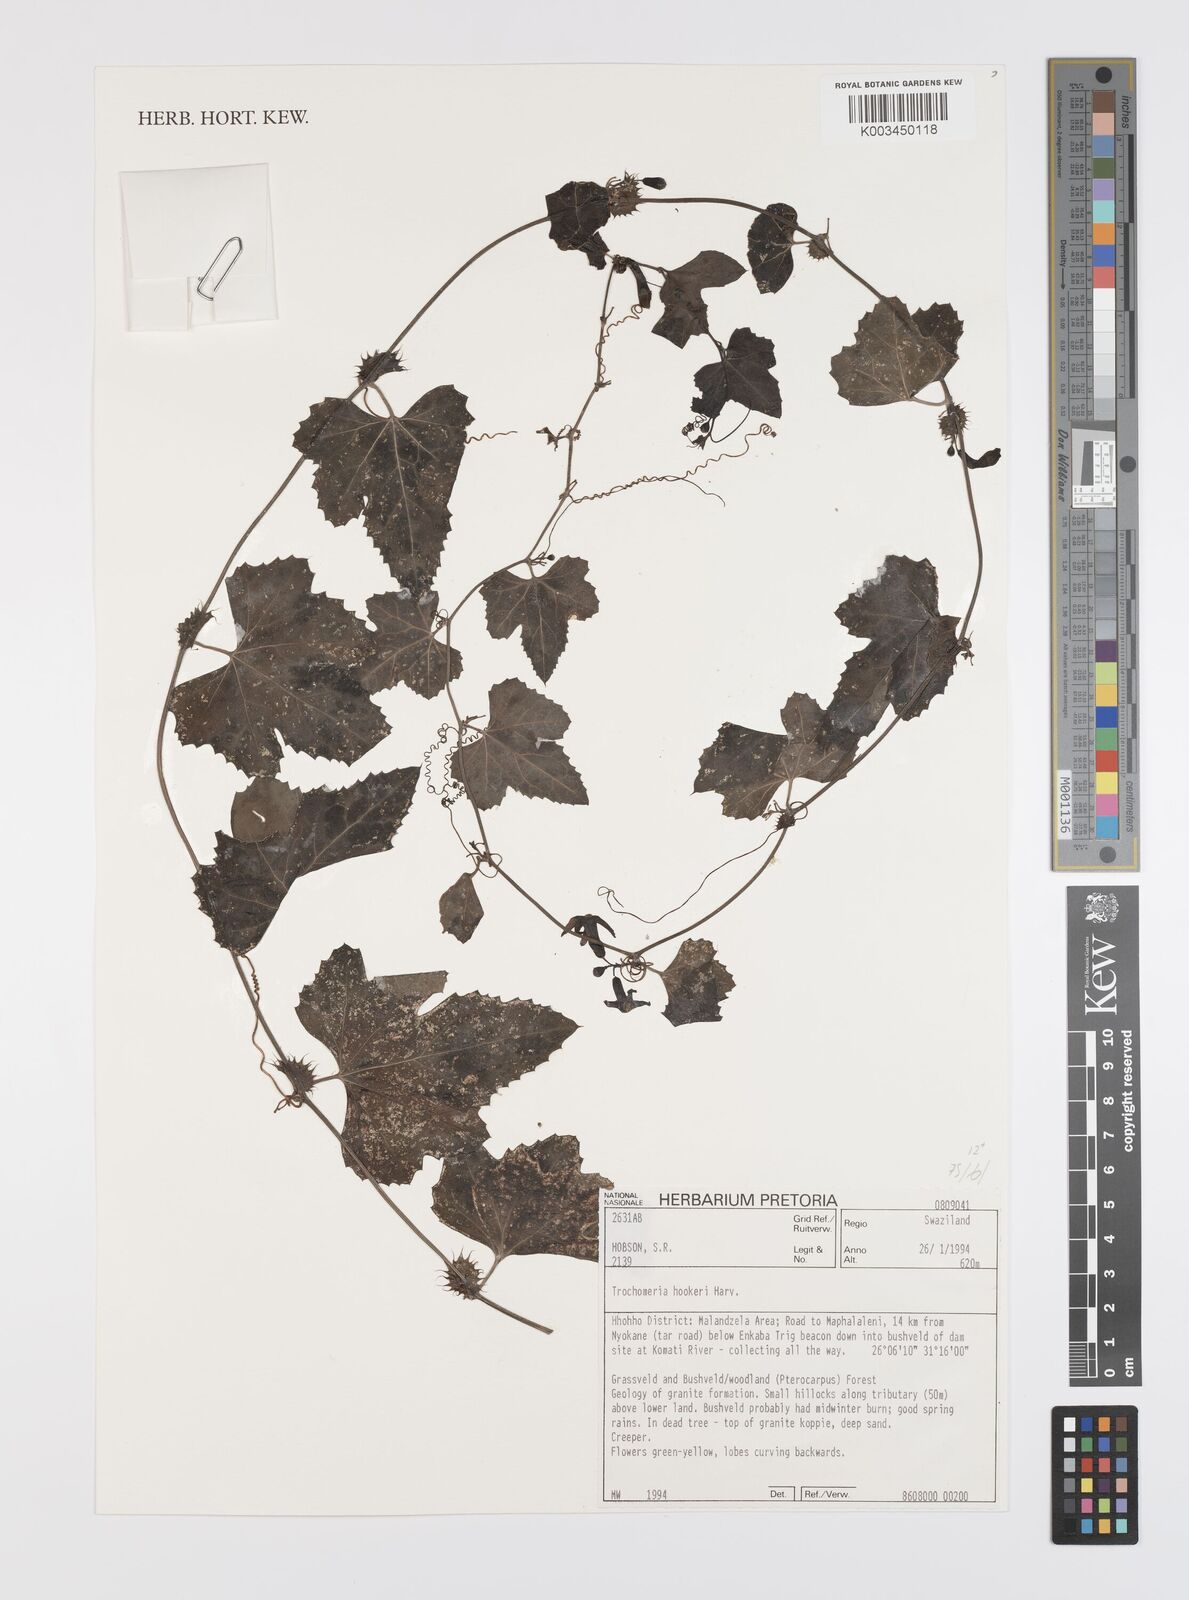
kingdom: Plantae
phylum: Tracheophyta
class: Magnoliopsida
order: Cucurbitales
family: Cucurbitaceae
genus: Trochomeria
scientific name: Trochomeria hookeri
